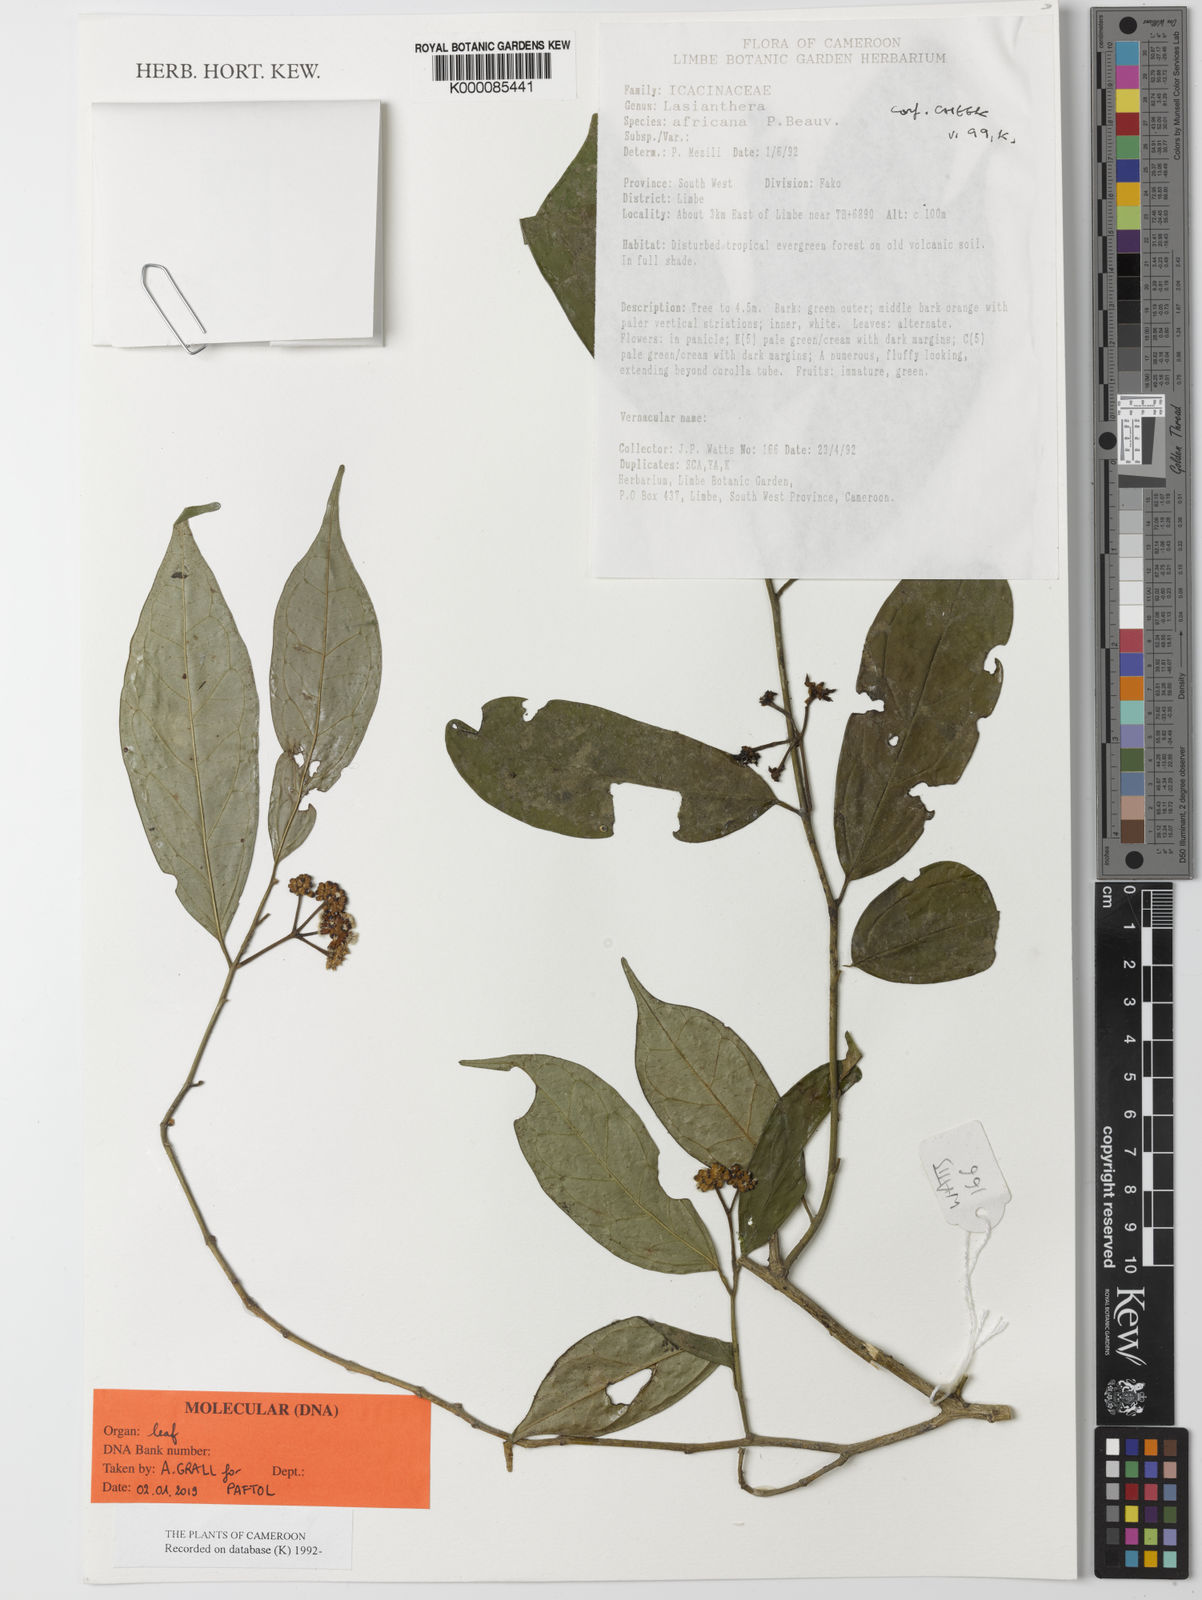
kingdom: Plantae
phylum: Tracheophyta
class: Magnoliopsida
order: Cardiopteridales
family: Stemonuraceae
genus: Lasianthera
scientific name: Lasianthera africana
